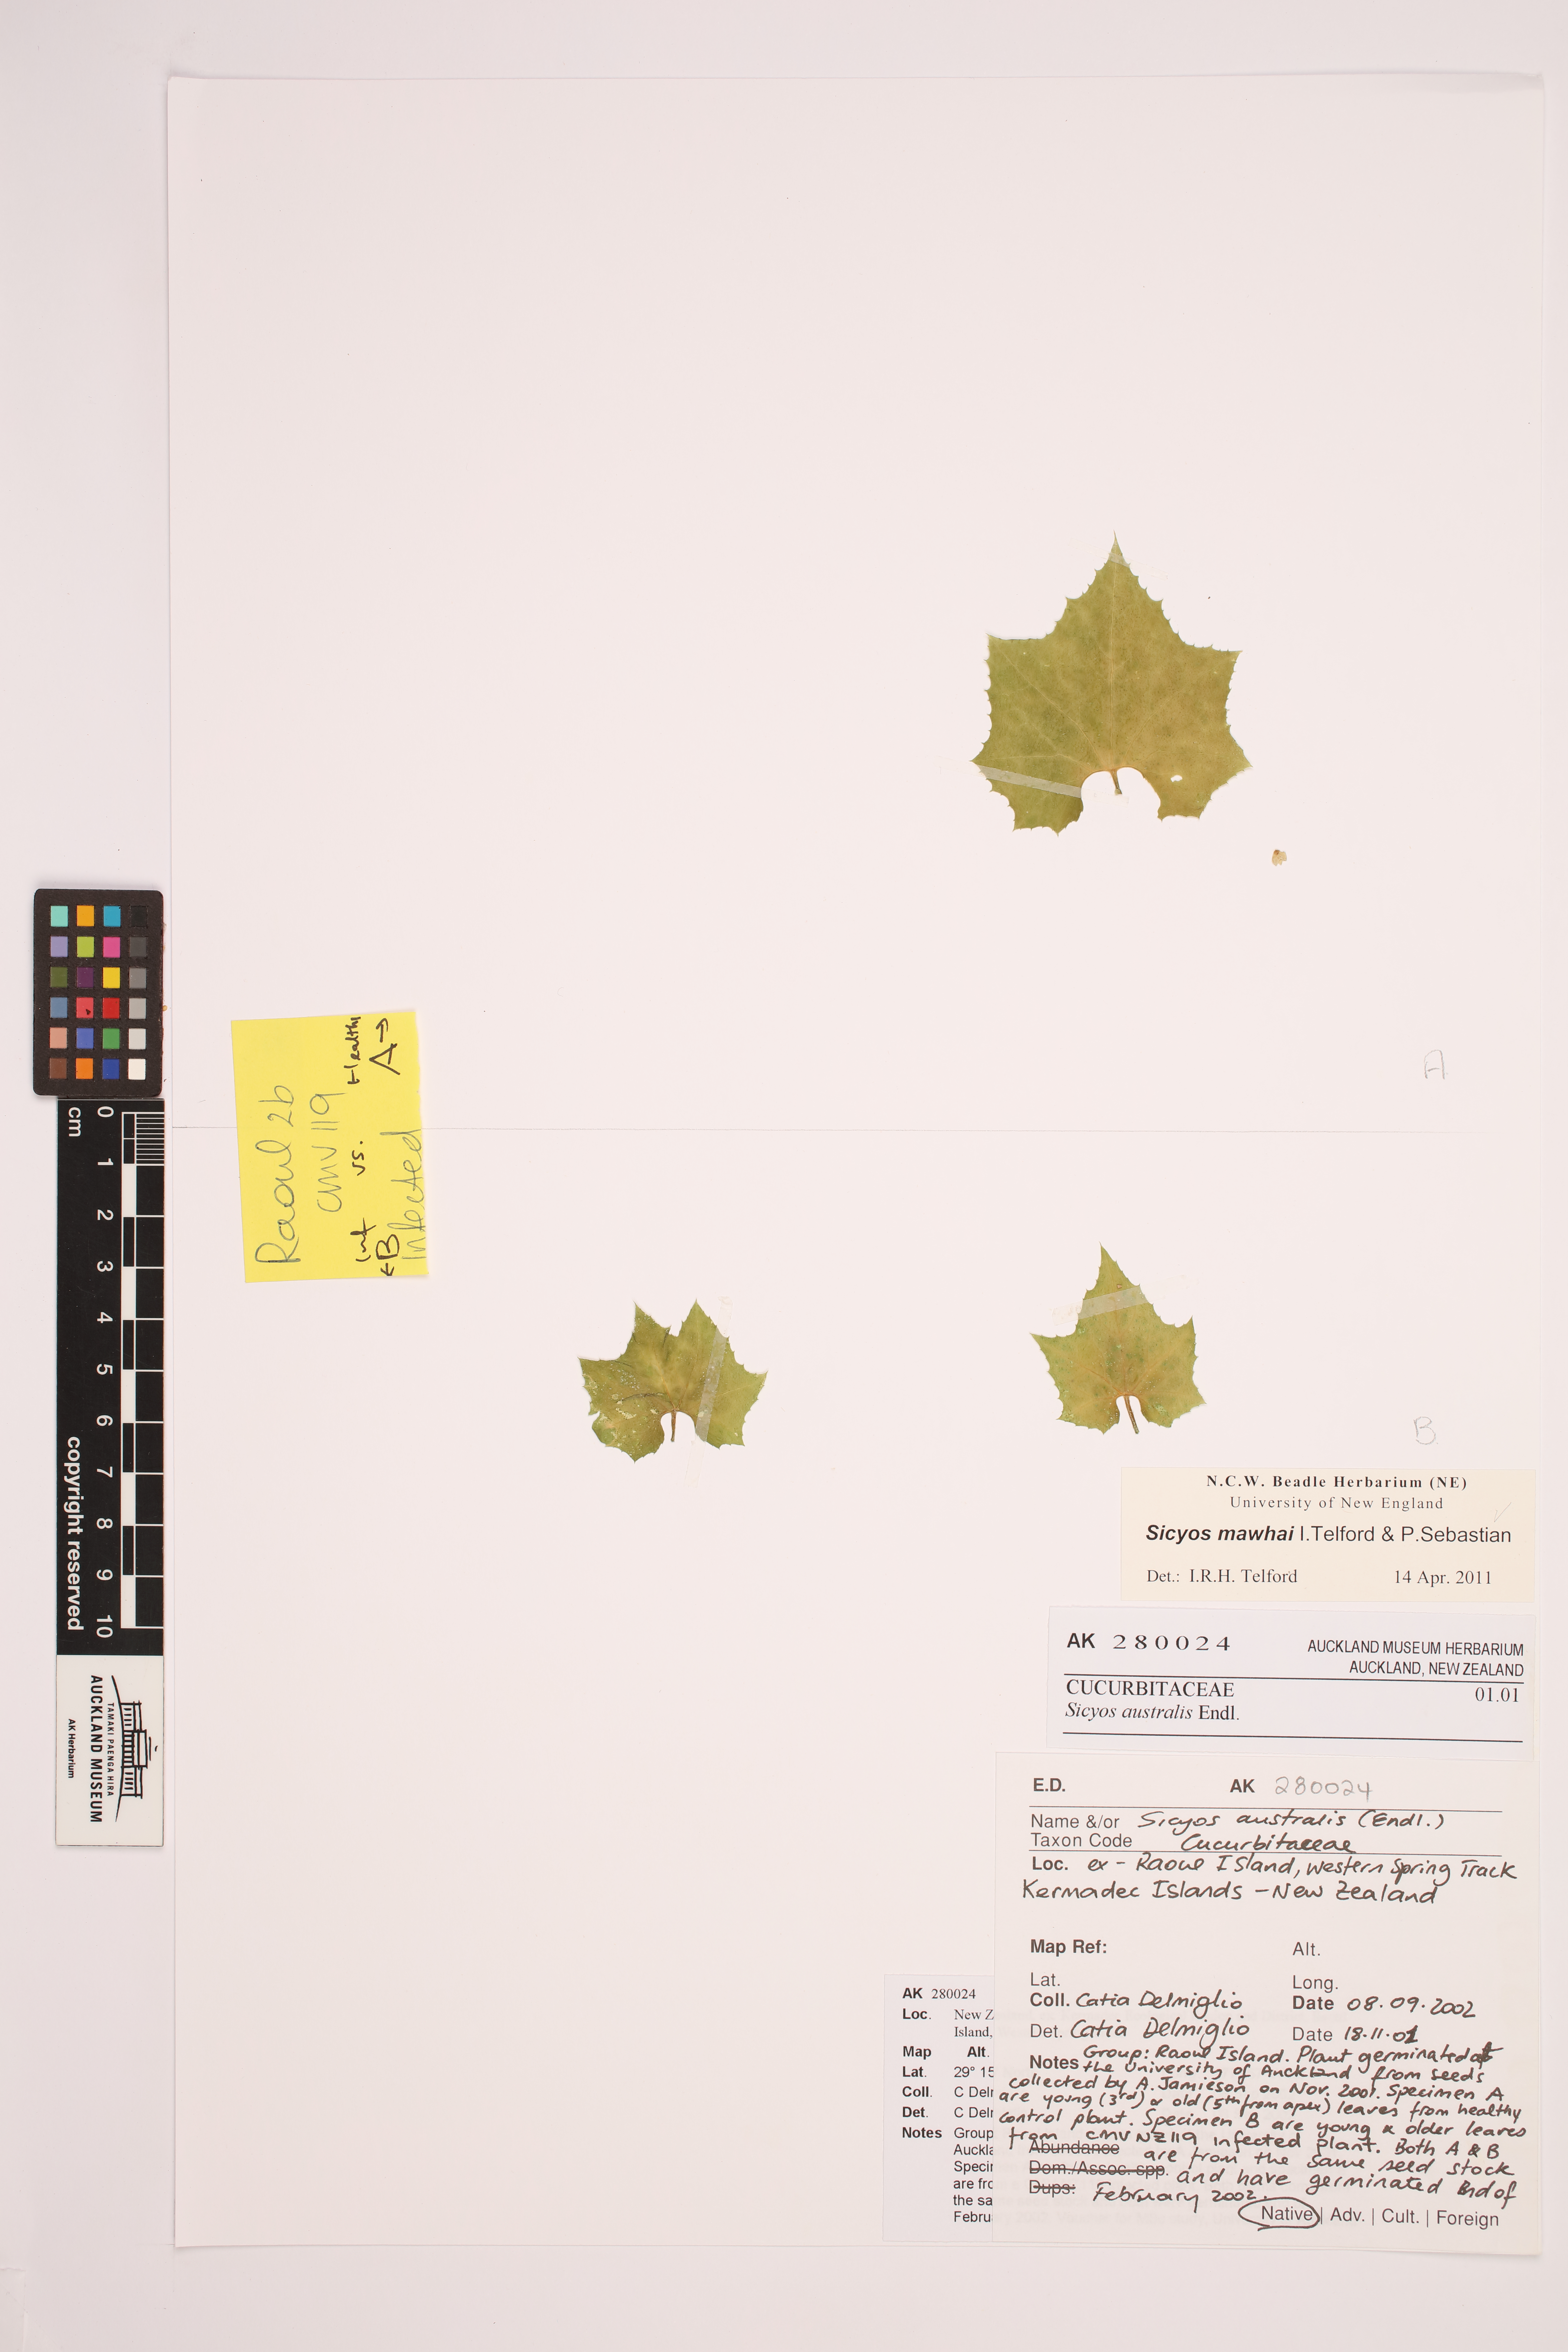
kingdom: Plantae
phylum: Tracheophyta
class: Magnoliopsida
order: Apiales
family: Pittosporaceae
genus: Pittosporum
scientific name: Pittosporum kirkii
